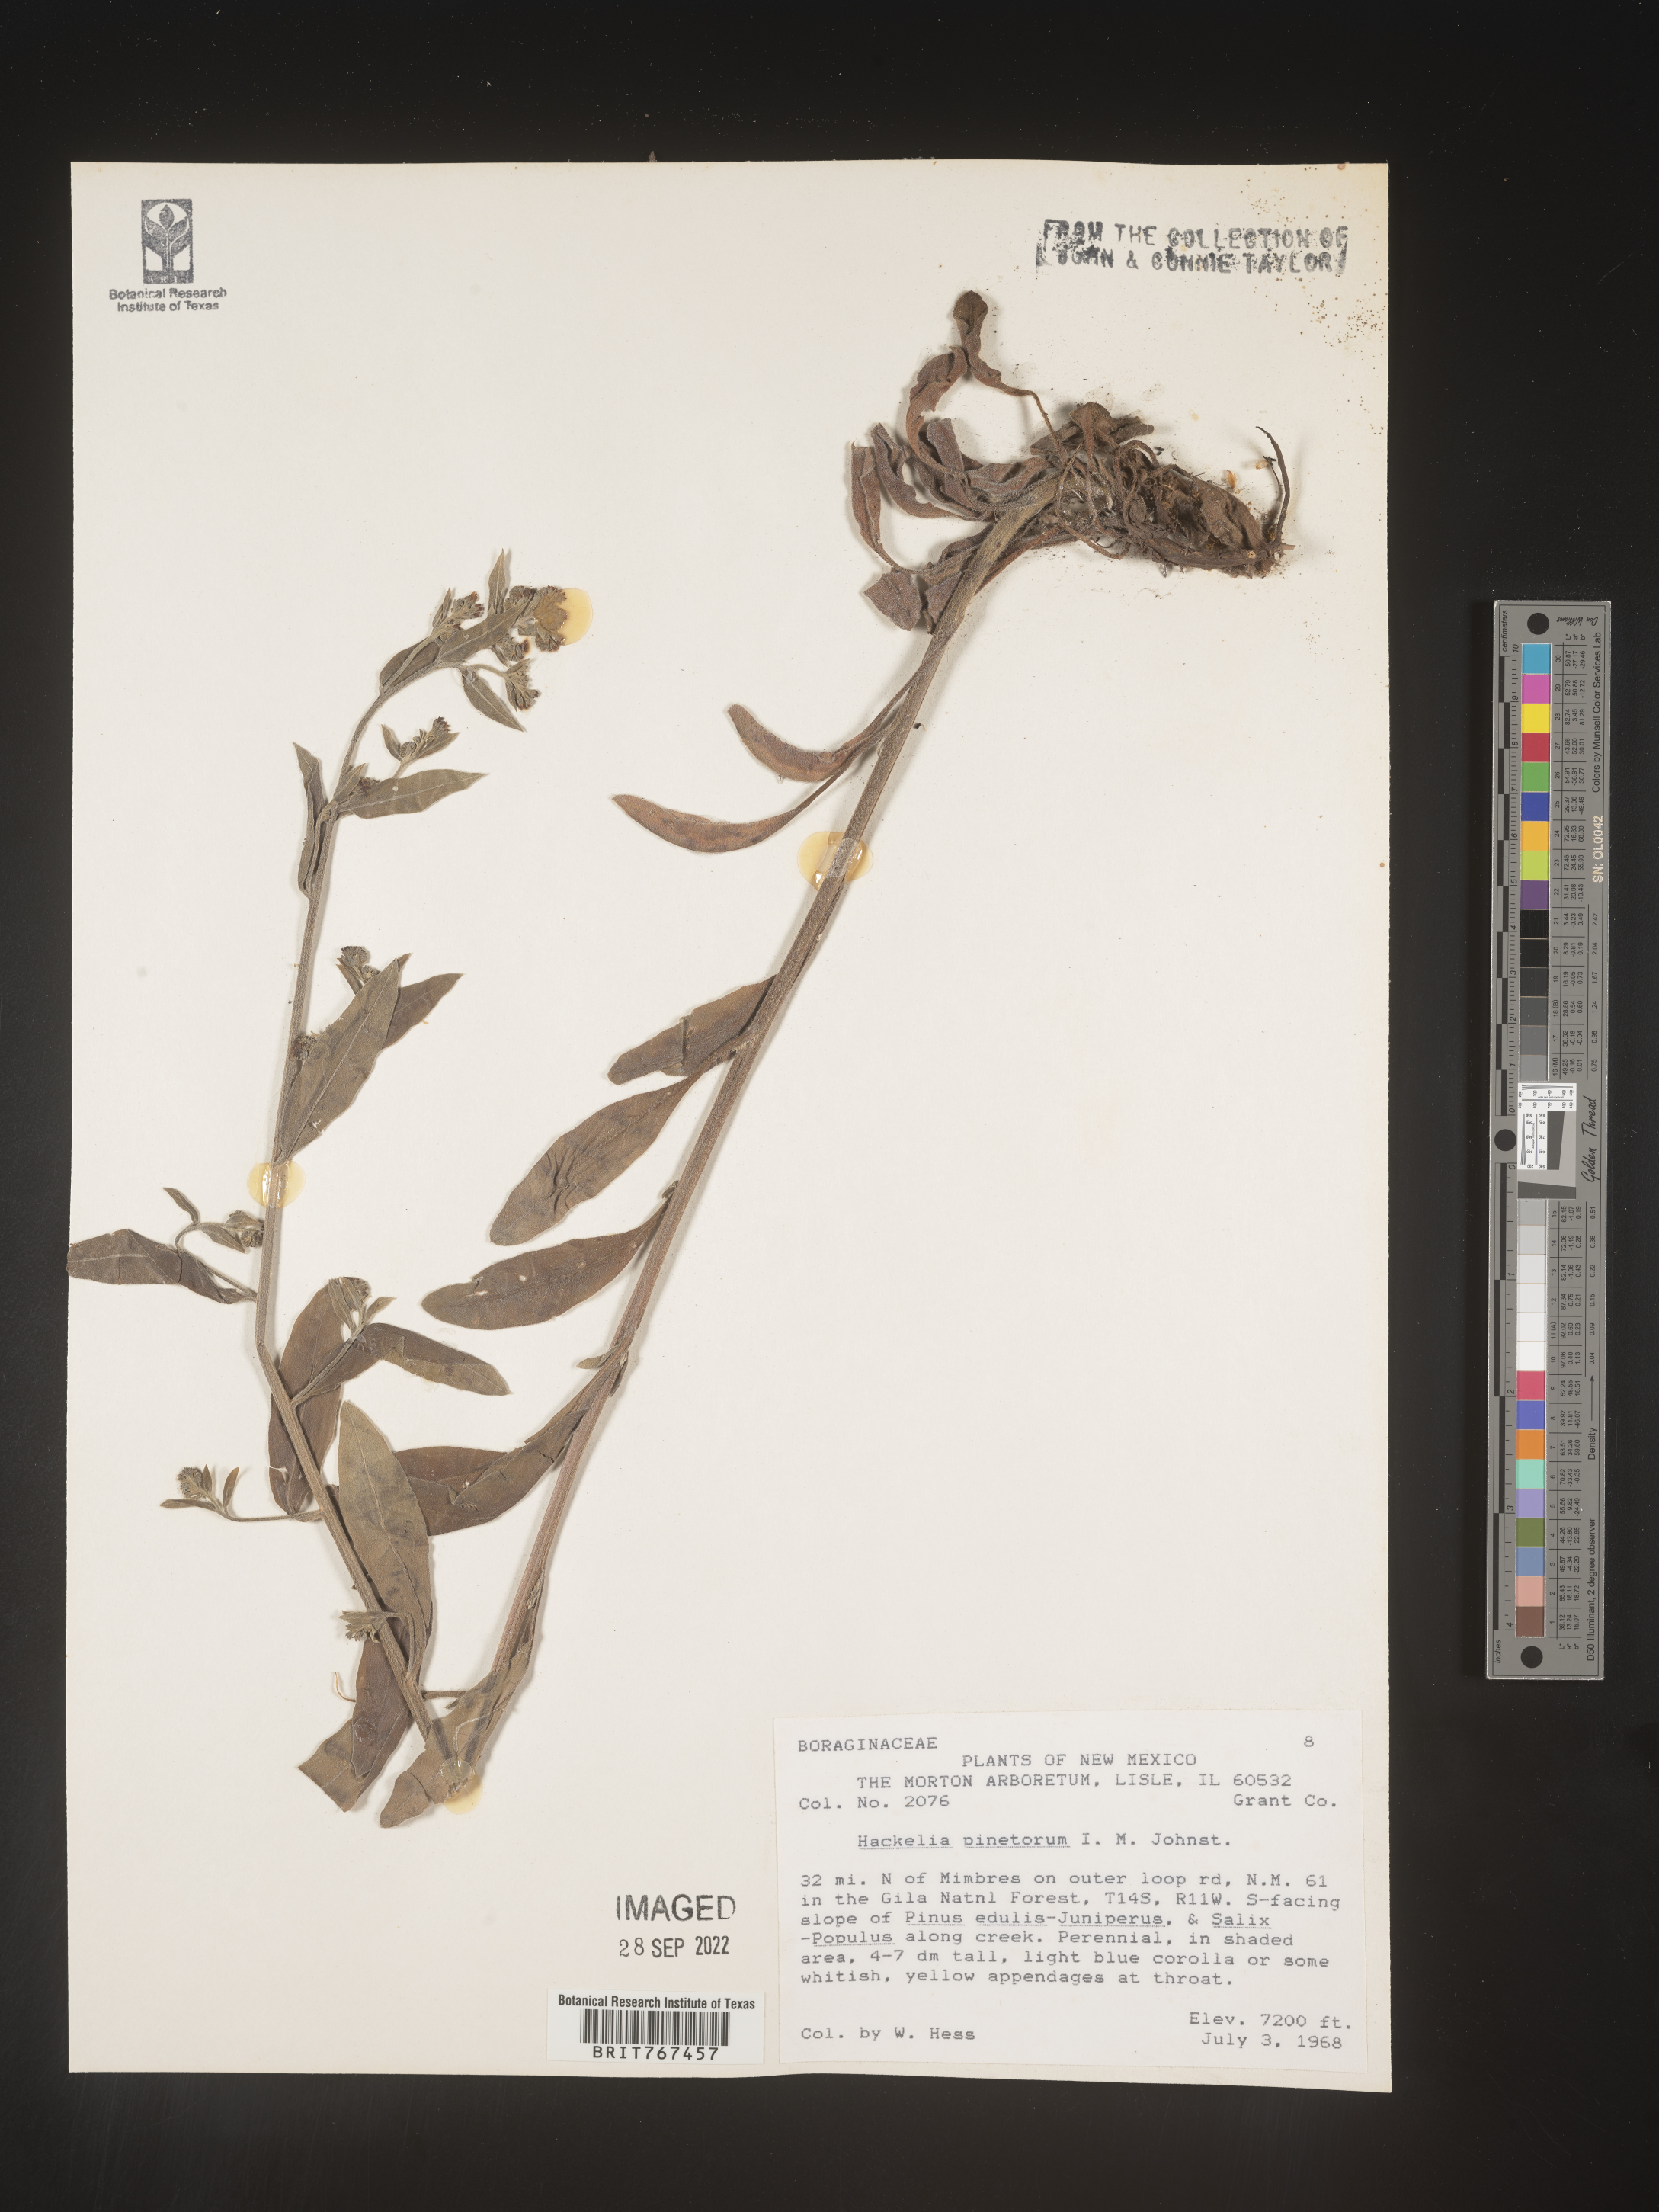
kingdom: Plantae
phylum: Tracheophyta
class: Magnoliopsida
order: Boraginales
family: Boraginaceae
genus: Hackelia
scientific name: Hackelia
